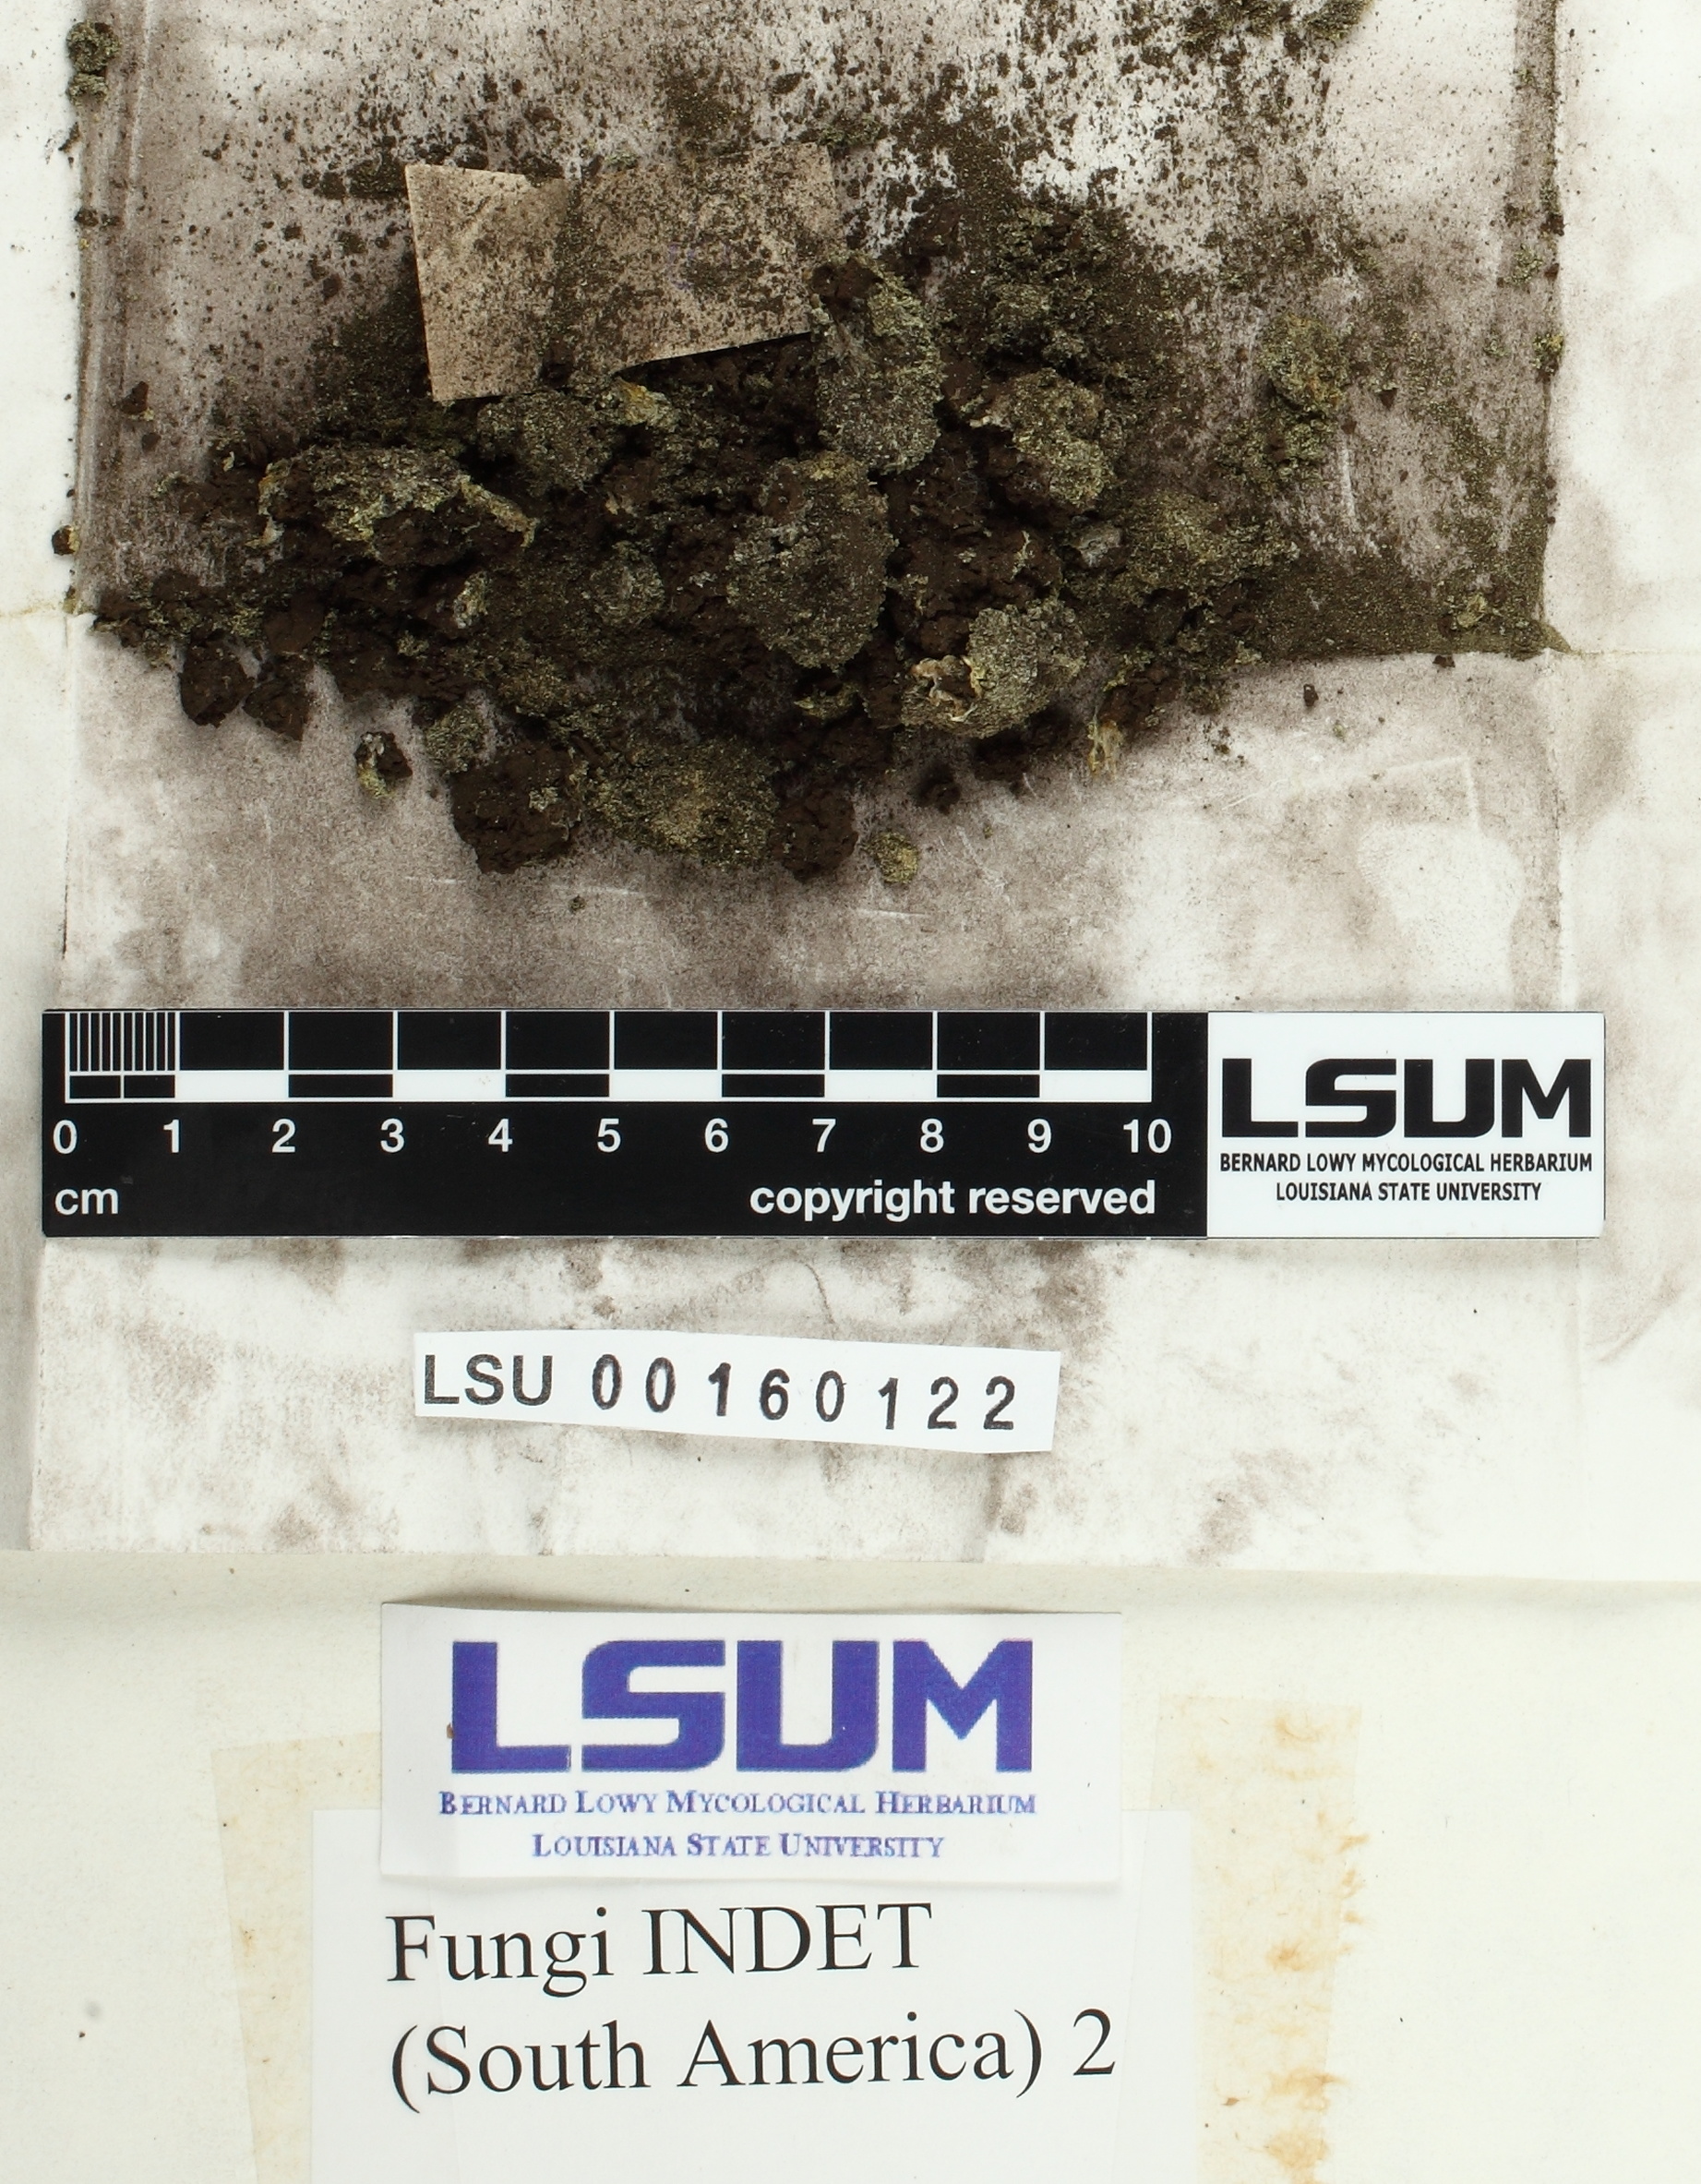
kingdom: Fungi
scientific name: Fungi
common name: Fungi
